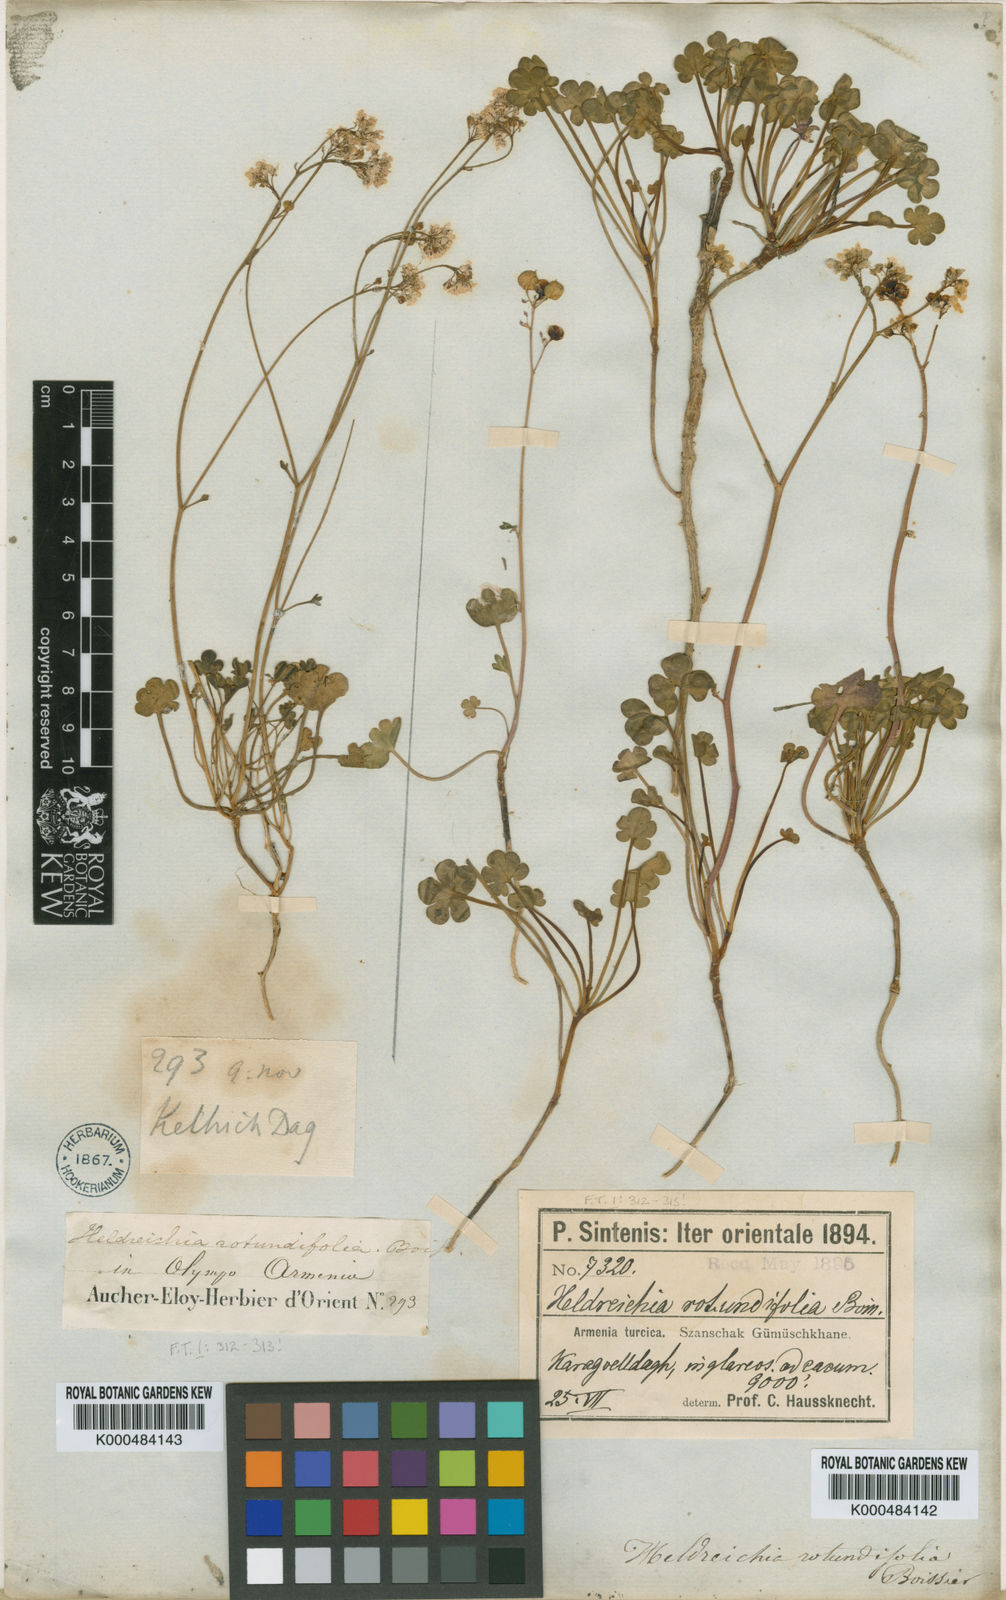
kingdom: Plantae
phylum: Tracheophyta
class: Magnoliopsida
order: Brassicales
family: Brassicaceae
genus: Heldreichia
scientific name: Heldreichia
